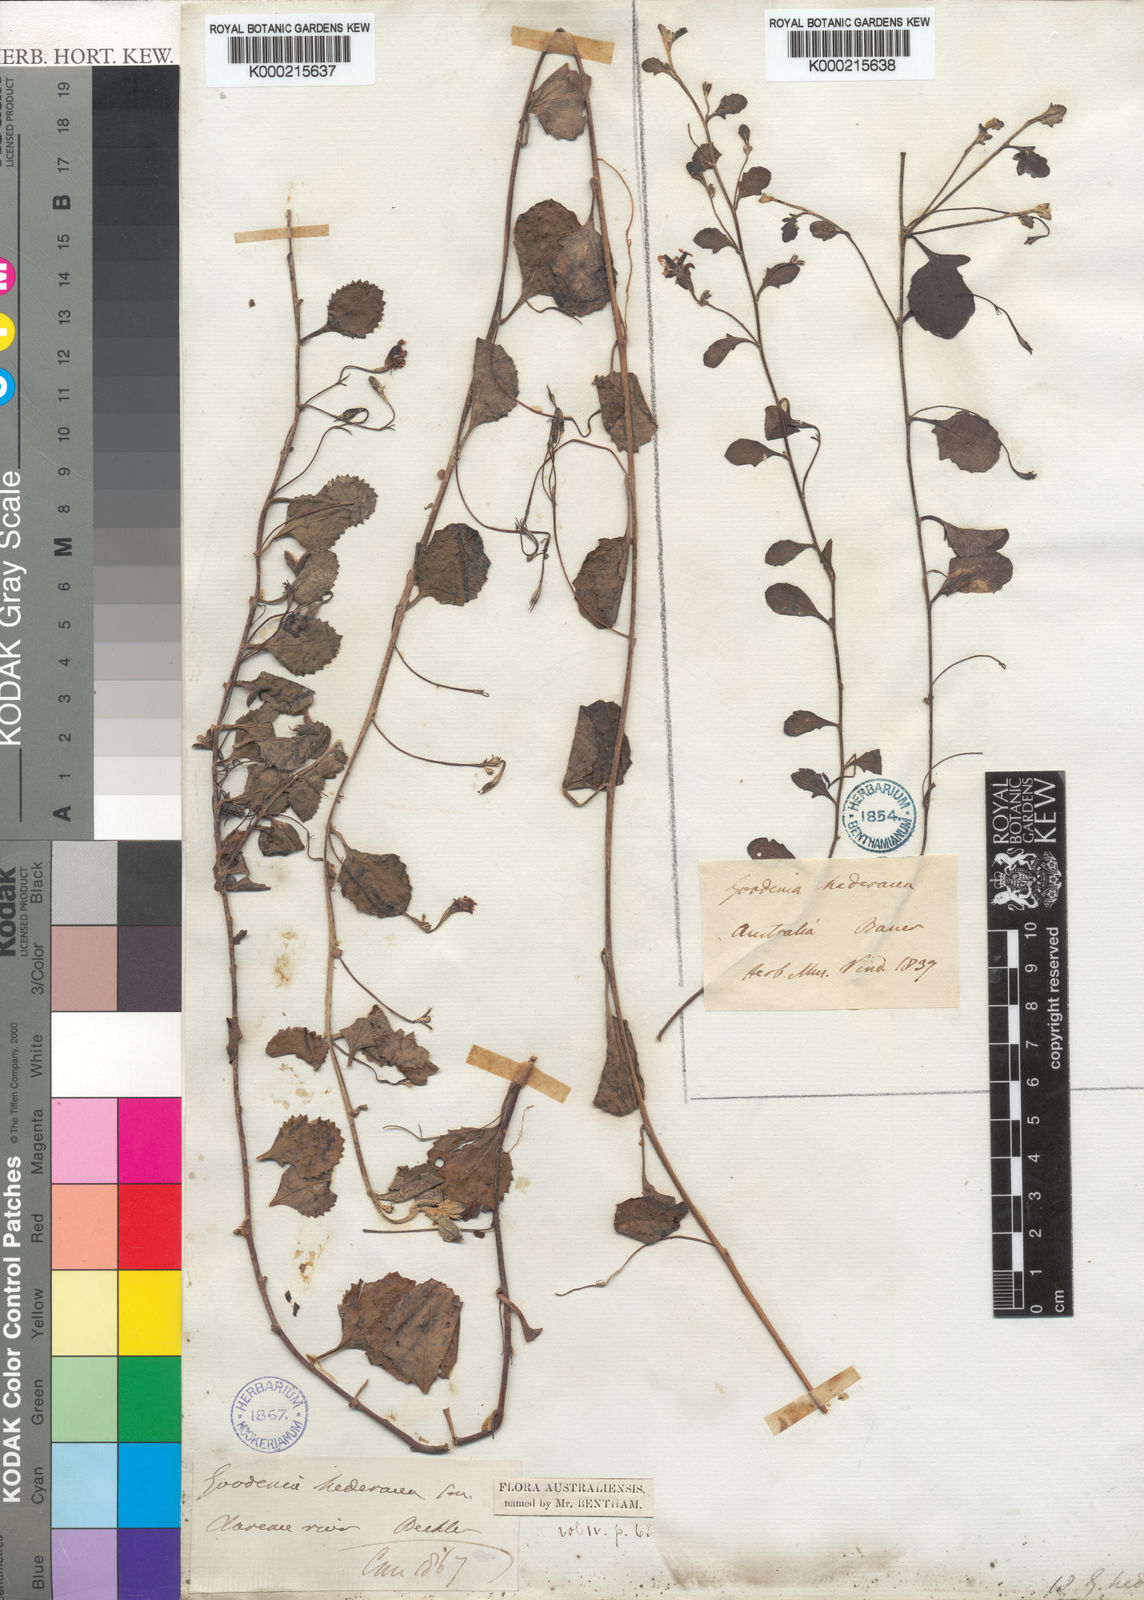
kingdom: Plantae
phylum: Tracheophyta
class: Magnoliopsida
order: Asterales
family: Goodeniaceae
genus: Goodenia
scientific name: Goodenia hederacea
